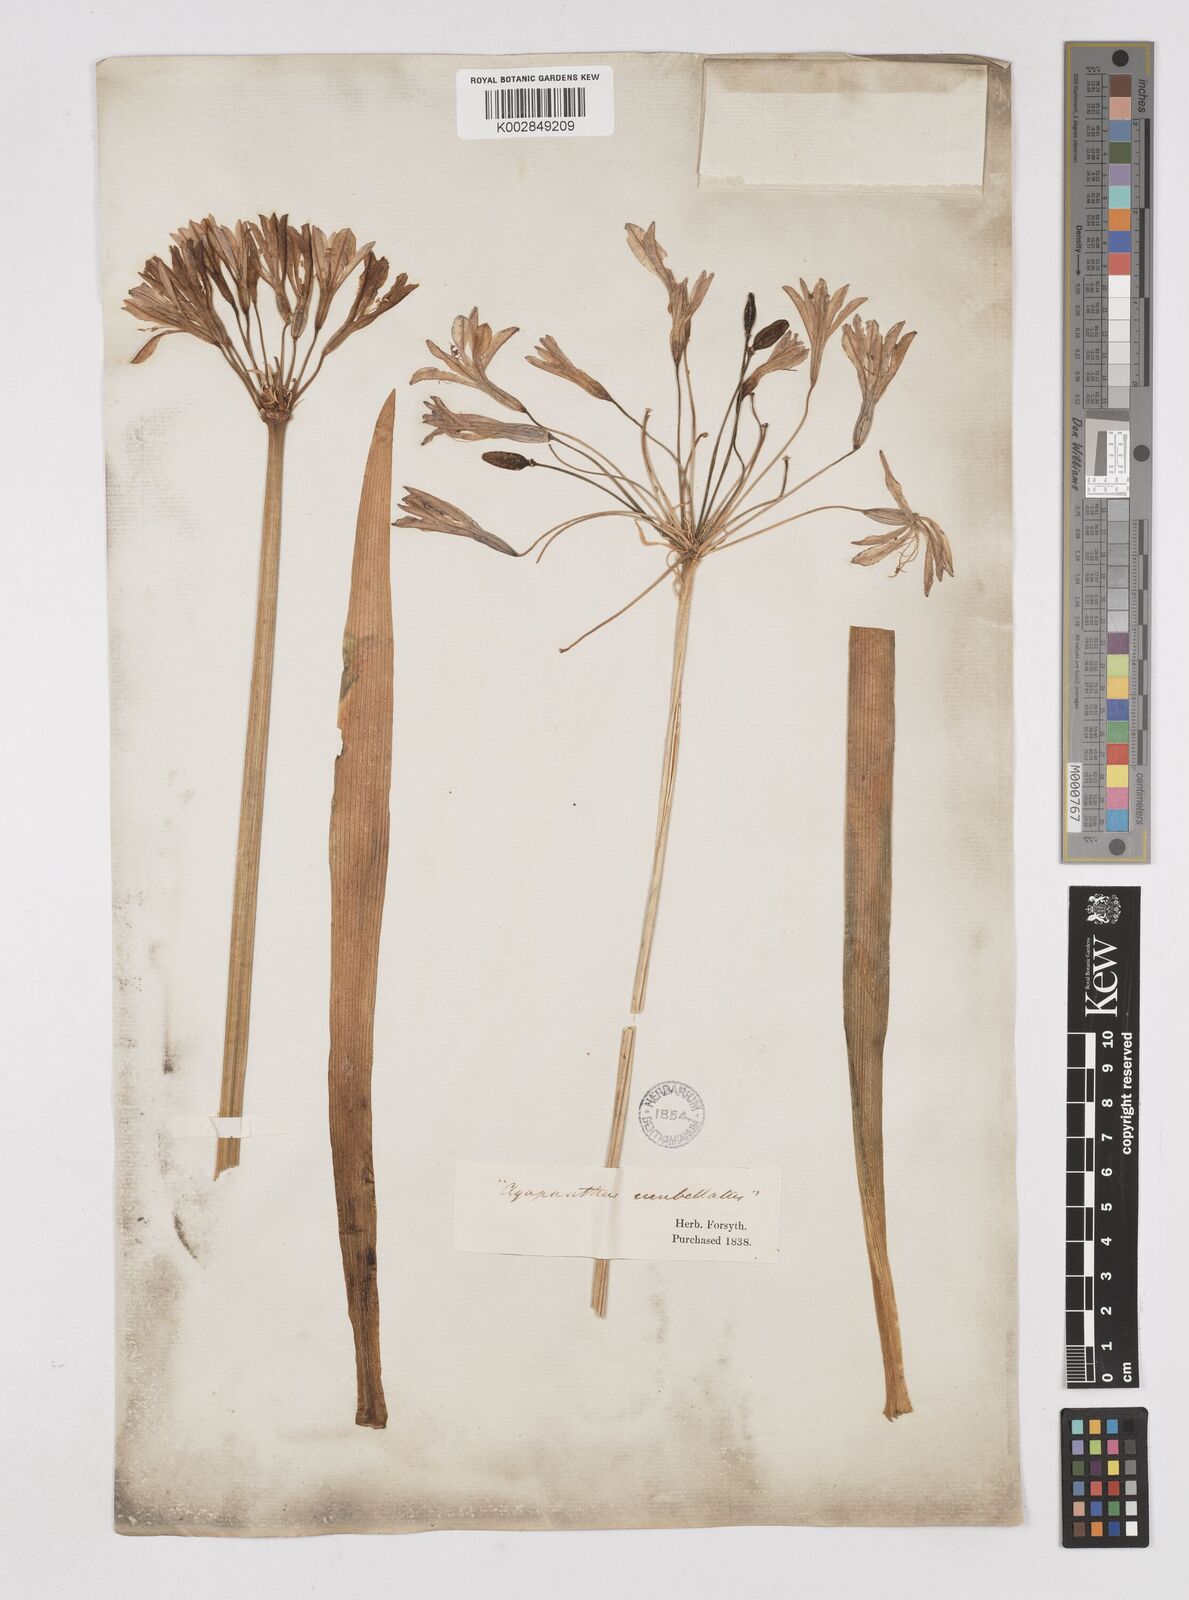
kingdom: Plantae
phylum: Tracheophyta
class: Liliopsida
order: Asparagales
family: Amaryllidaceae
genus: Agapanthus
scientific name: Agapanthus africanus
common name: Lily-of-the-nile
